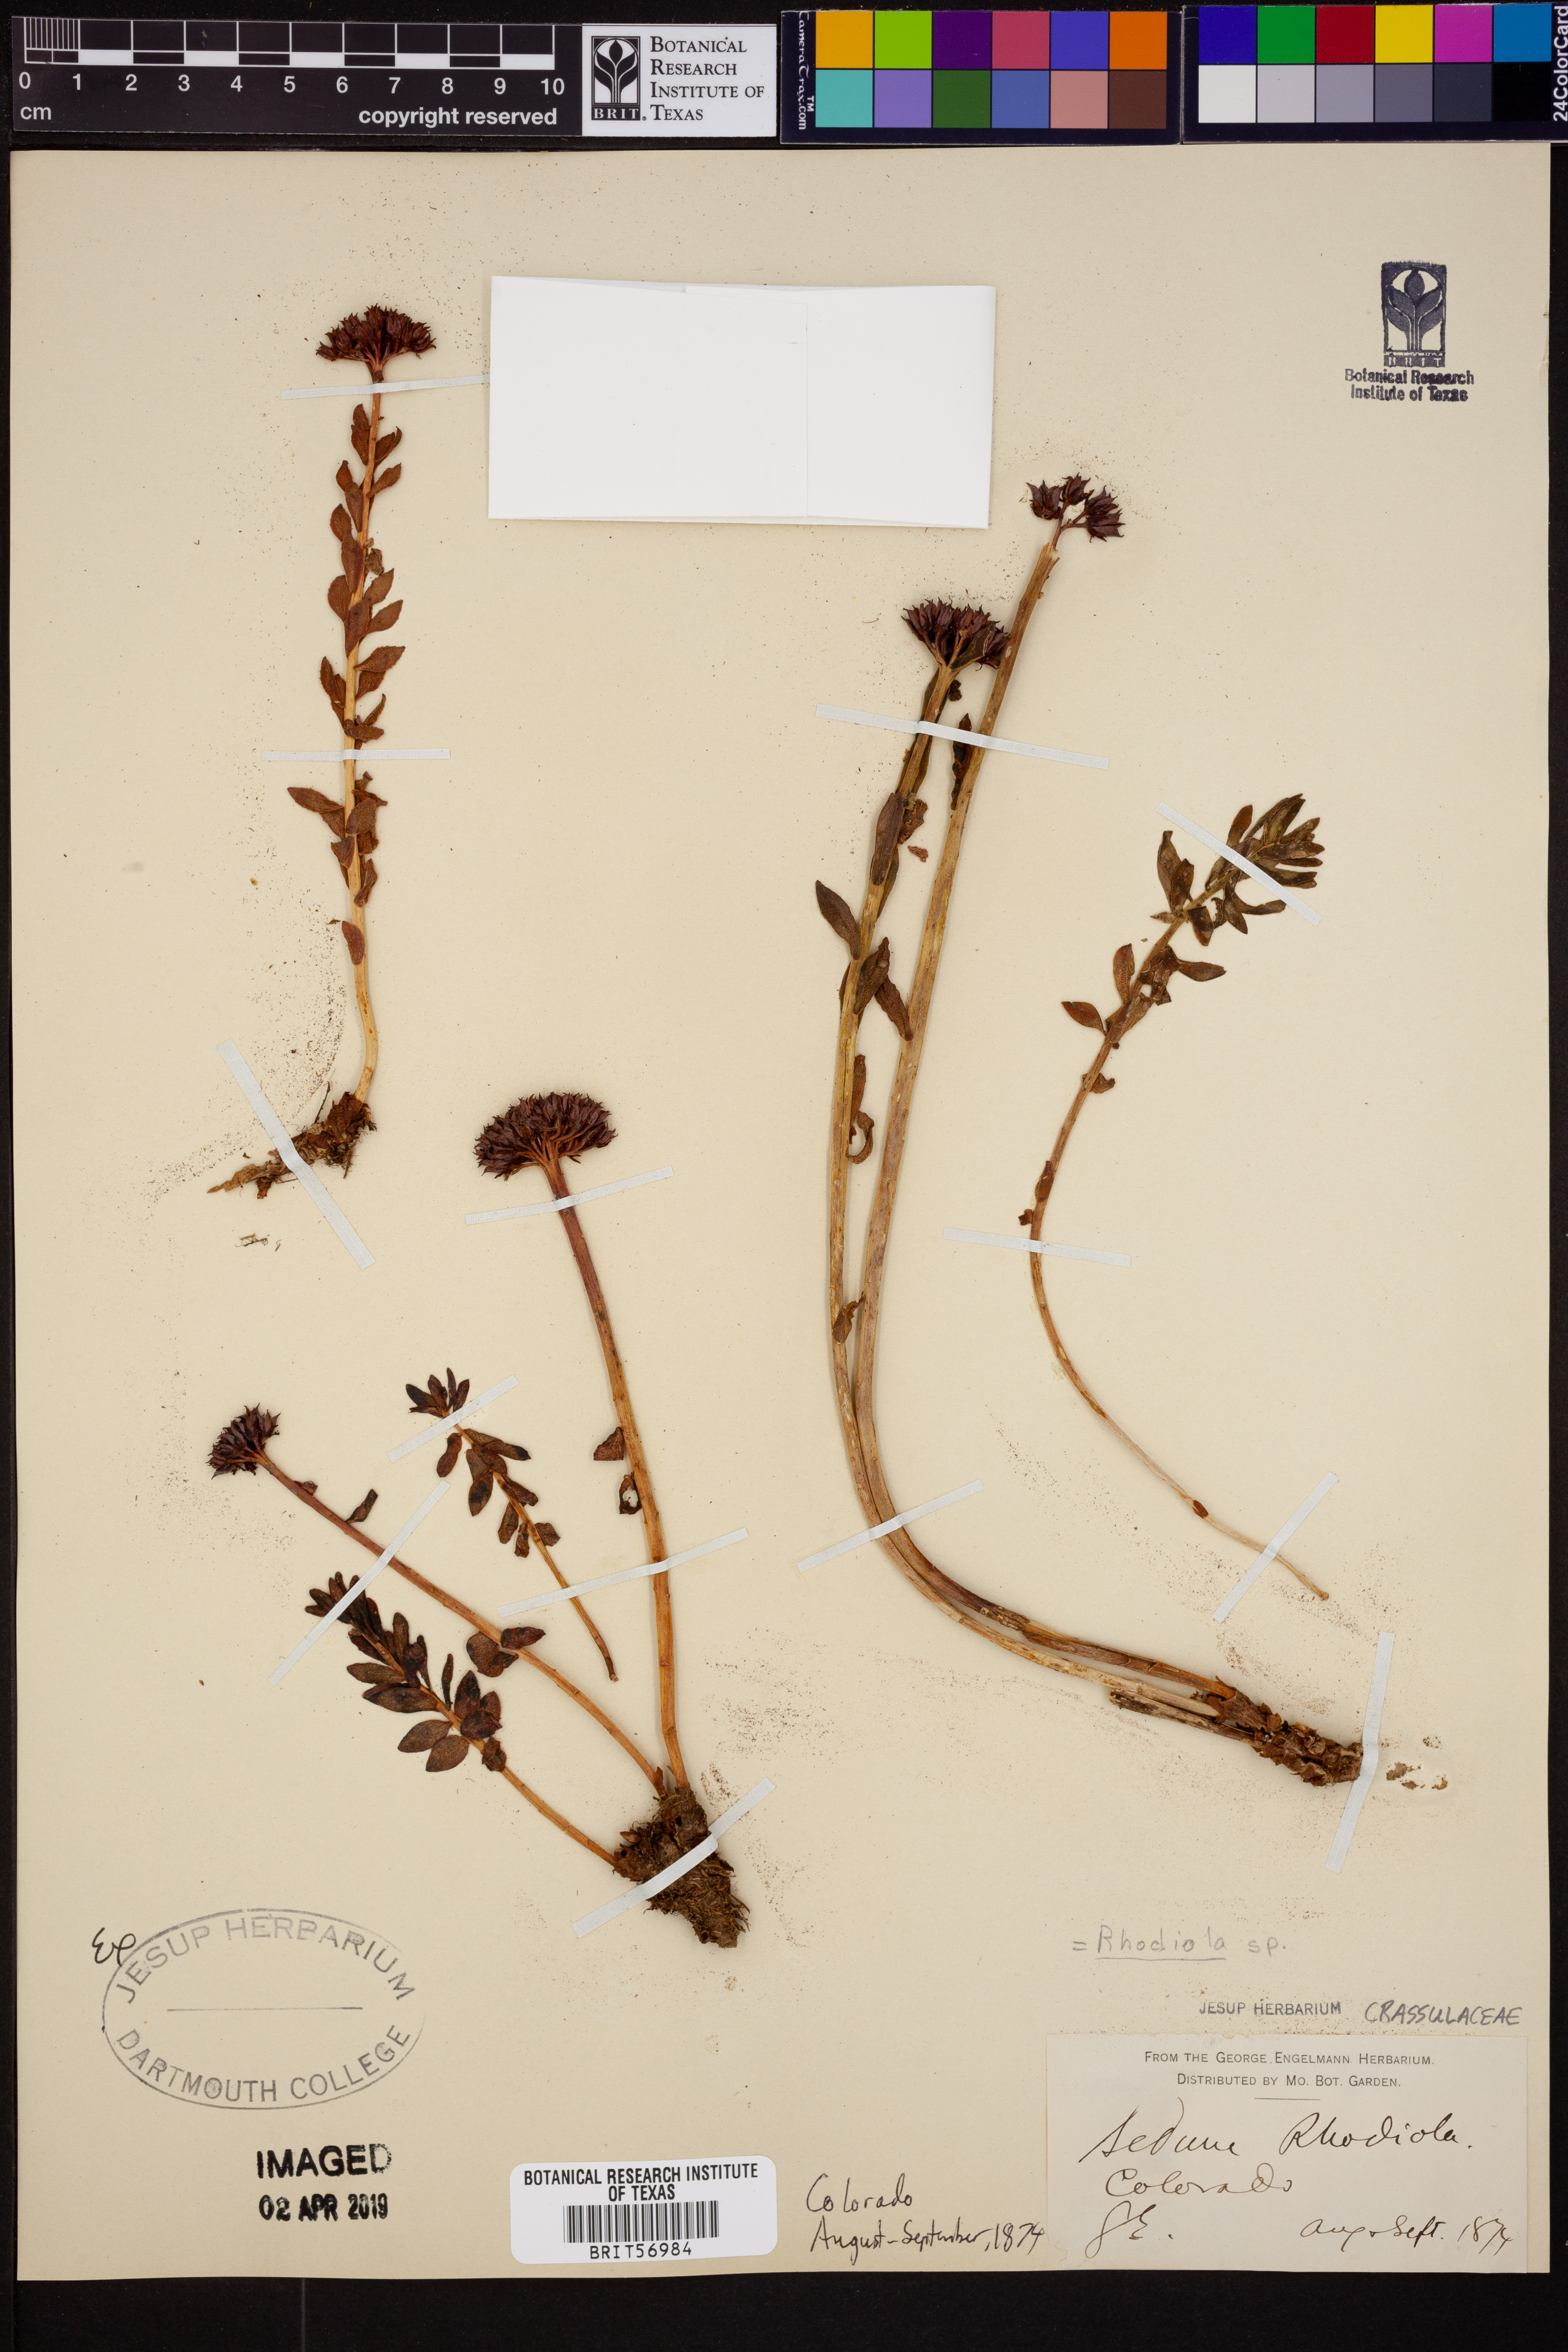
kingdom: Plantae
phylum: Tracheophyta
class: Magnoliopsida
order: Saxifragales
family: Crassulaceae
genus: Rhodiola
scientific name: Rhodiola
